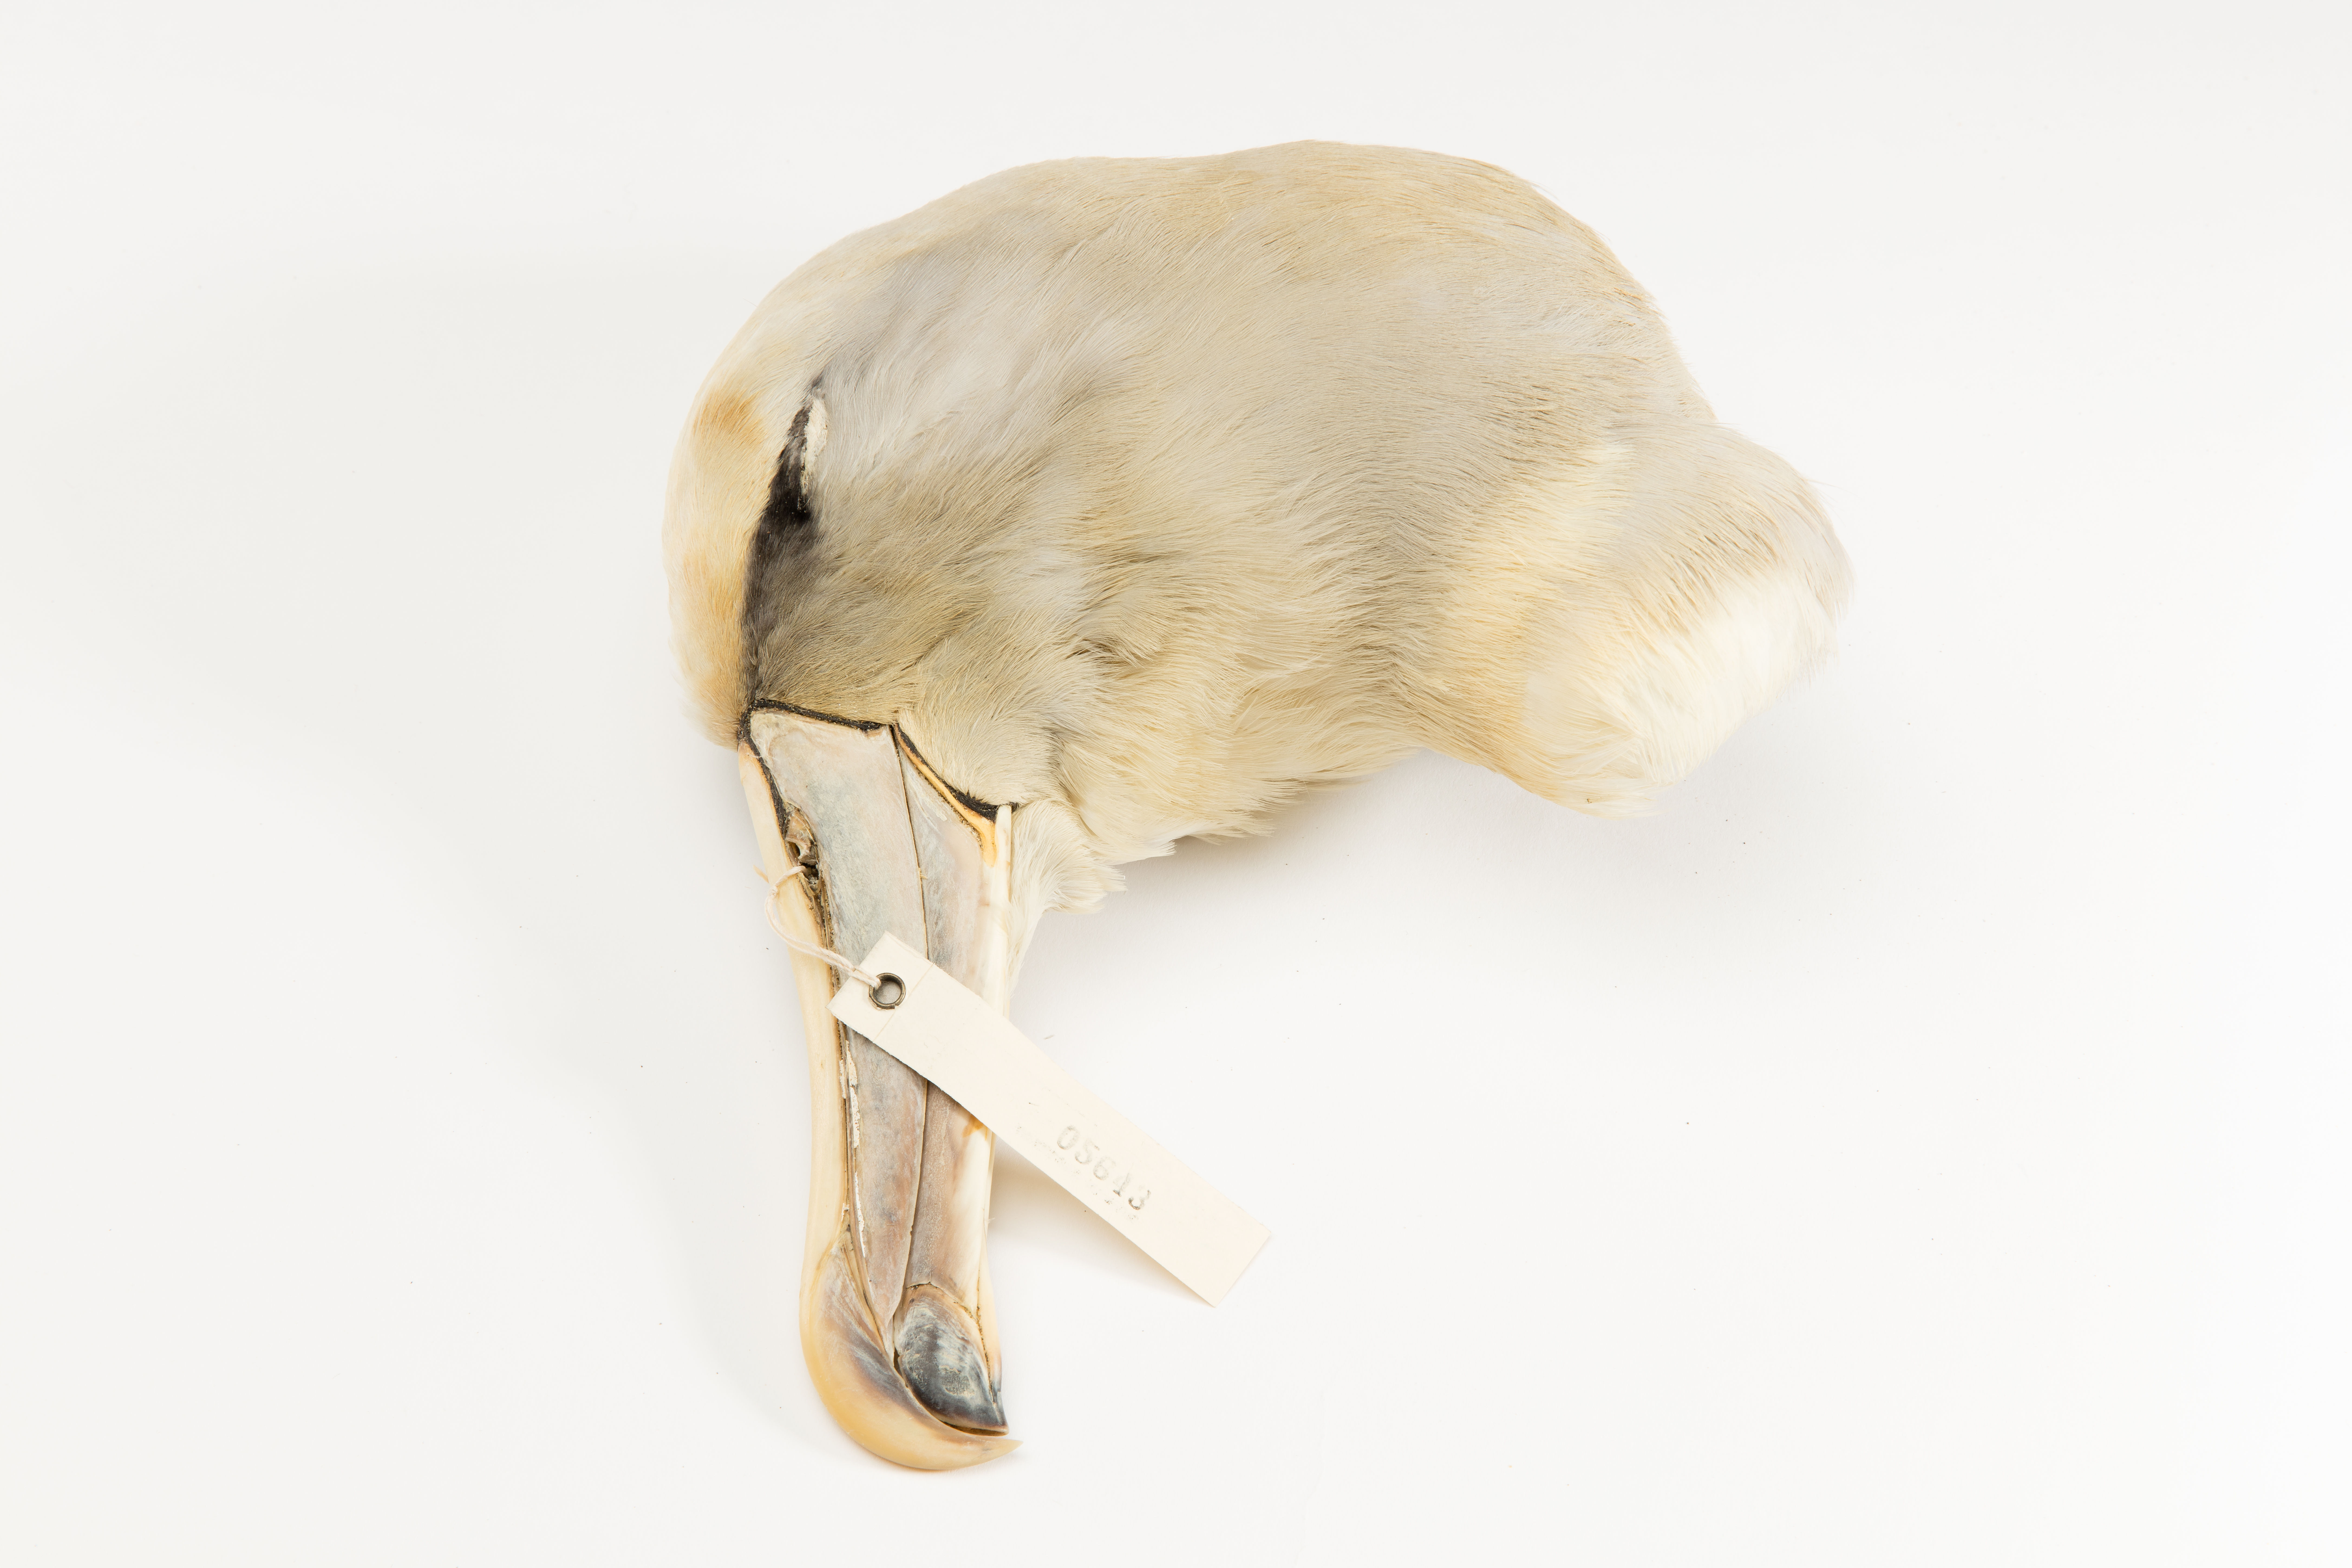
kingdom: Animalia
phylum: Chordata
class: Aves
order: Procellariiformes
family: Diomedeidae
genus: Thalassarche
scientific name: Thalassarche salvini
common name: Salvin's albatross
